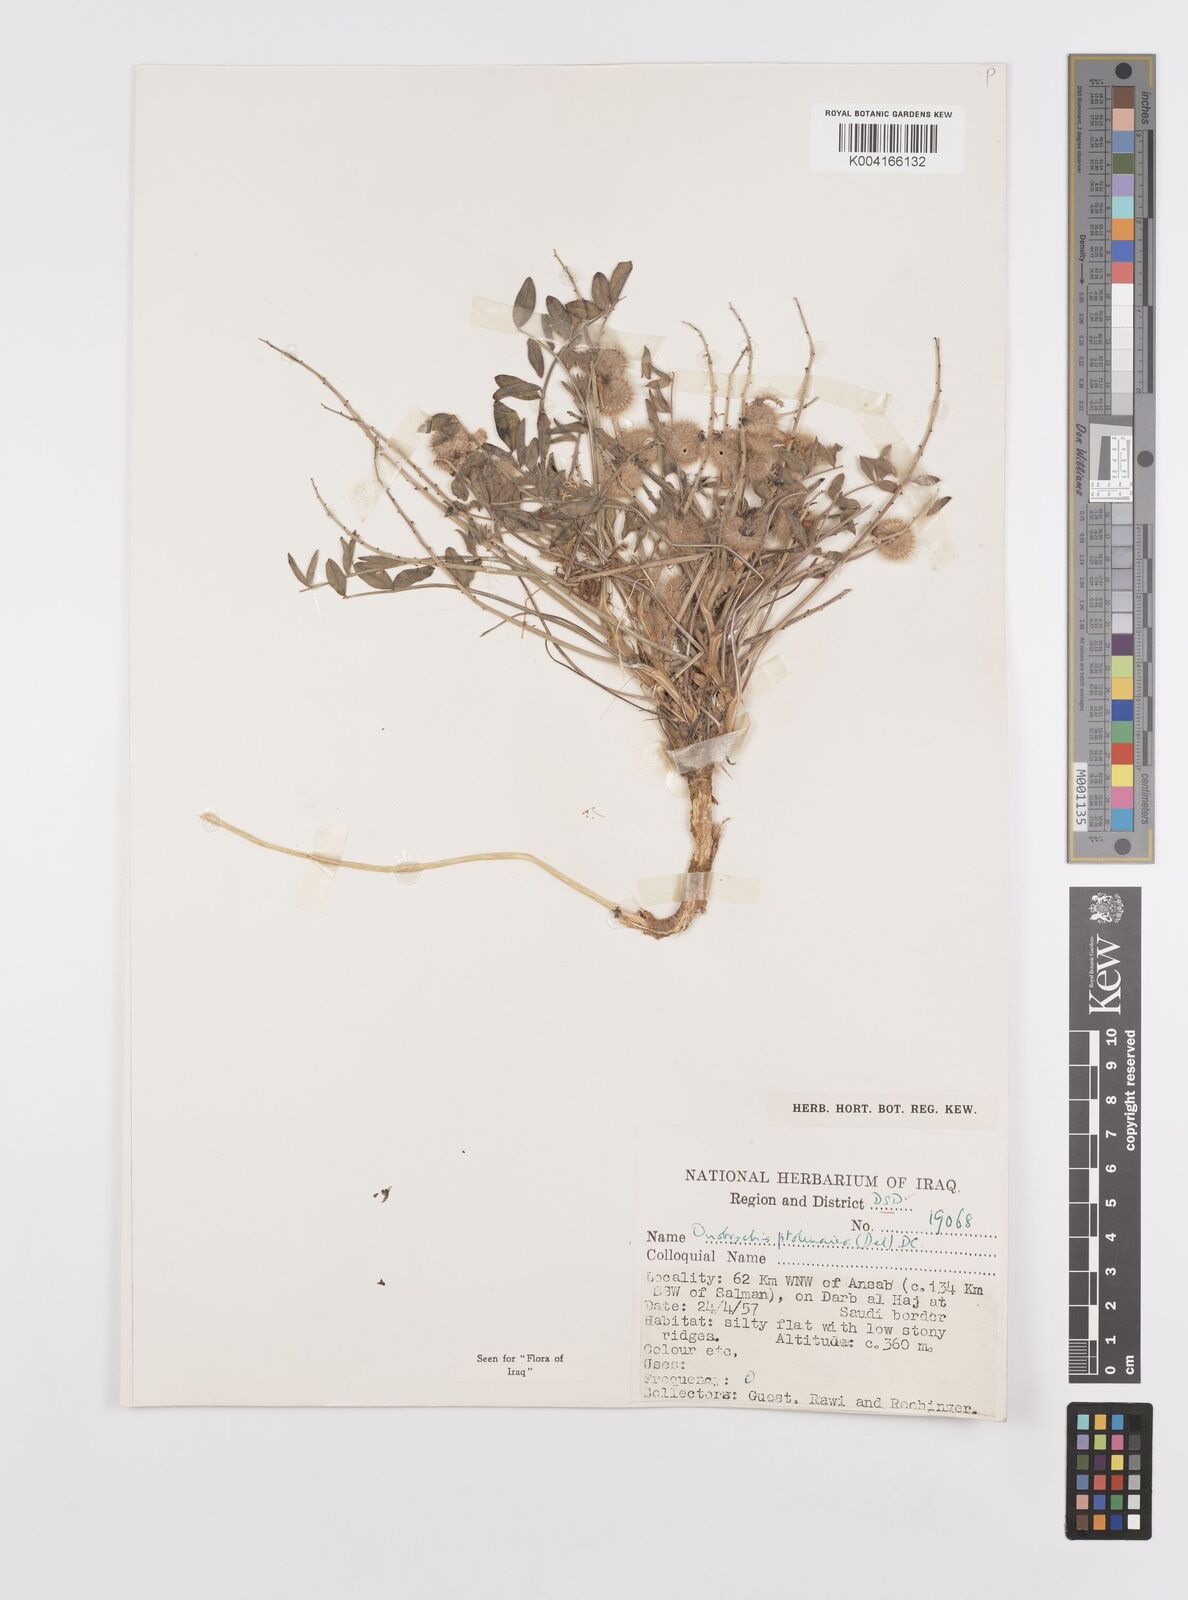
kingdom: Plantae
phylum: Tracheophyta
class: Magnoliopsida
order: Fabales
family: Fabaceae
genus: Onobrychis
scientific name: Onobrychis ptolemaica
